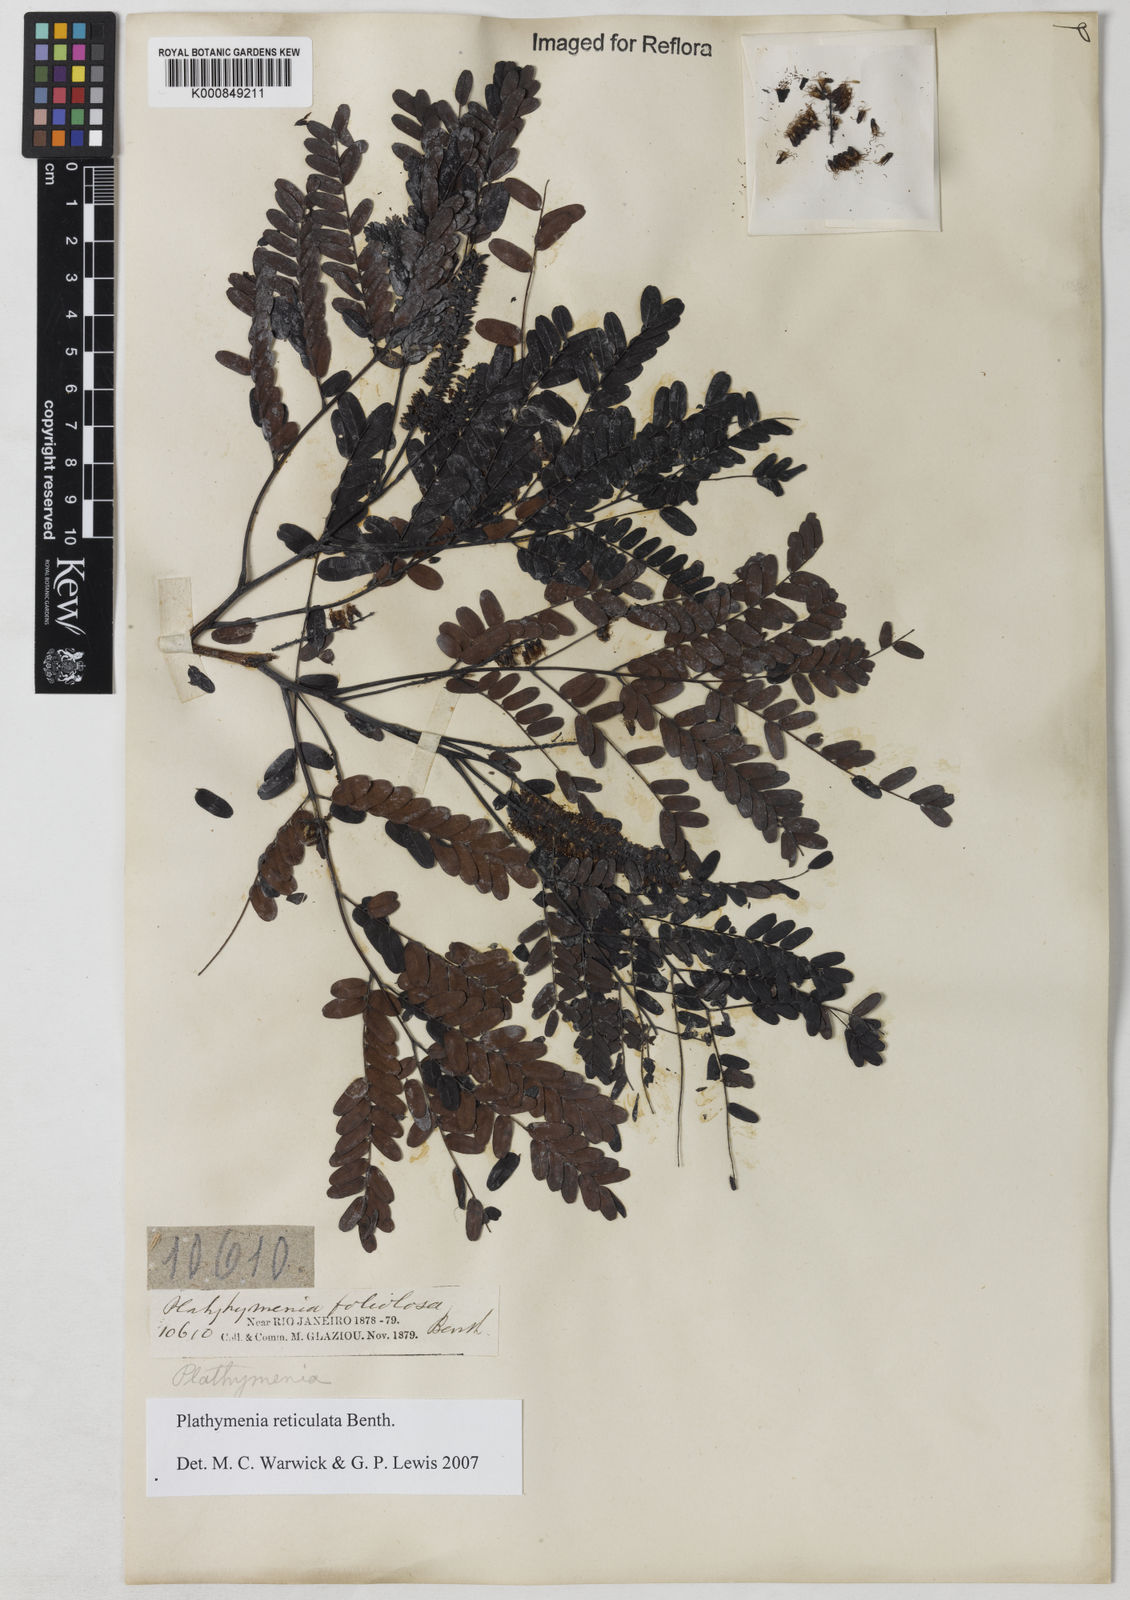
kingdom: Plantae
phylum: Tracheophyta
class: Magnoliopsida
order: Fabales
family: Fabaceae
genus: Plathymenia
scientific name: Plathymenia reticulata
